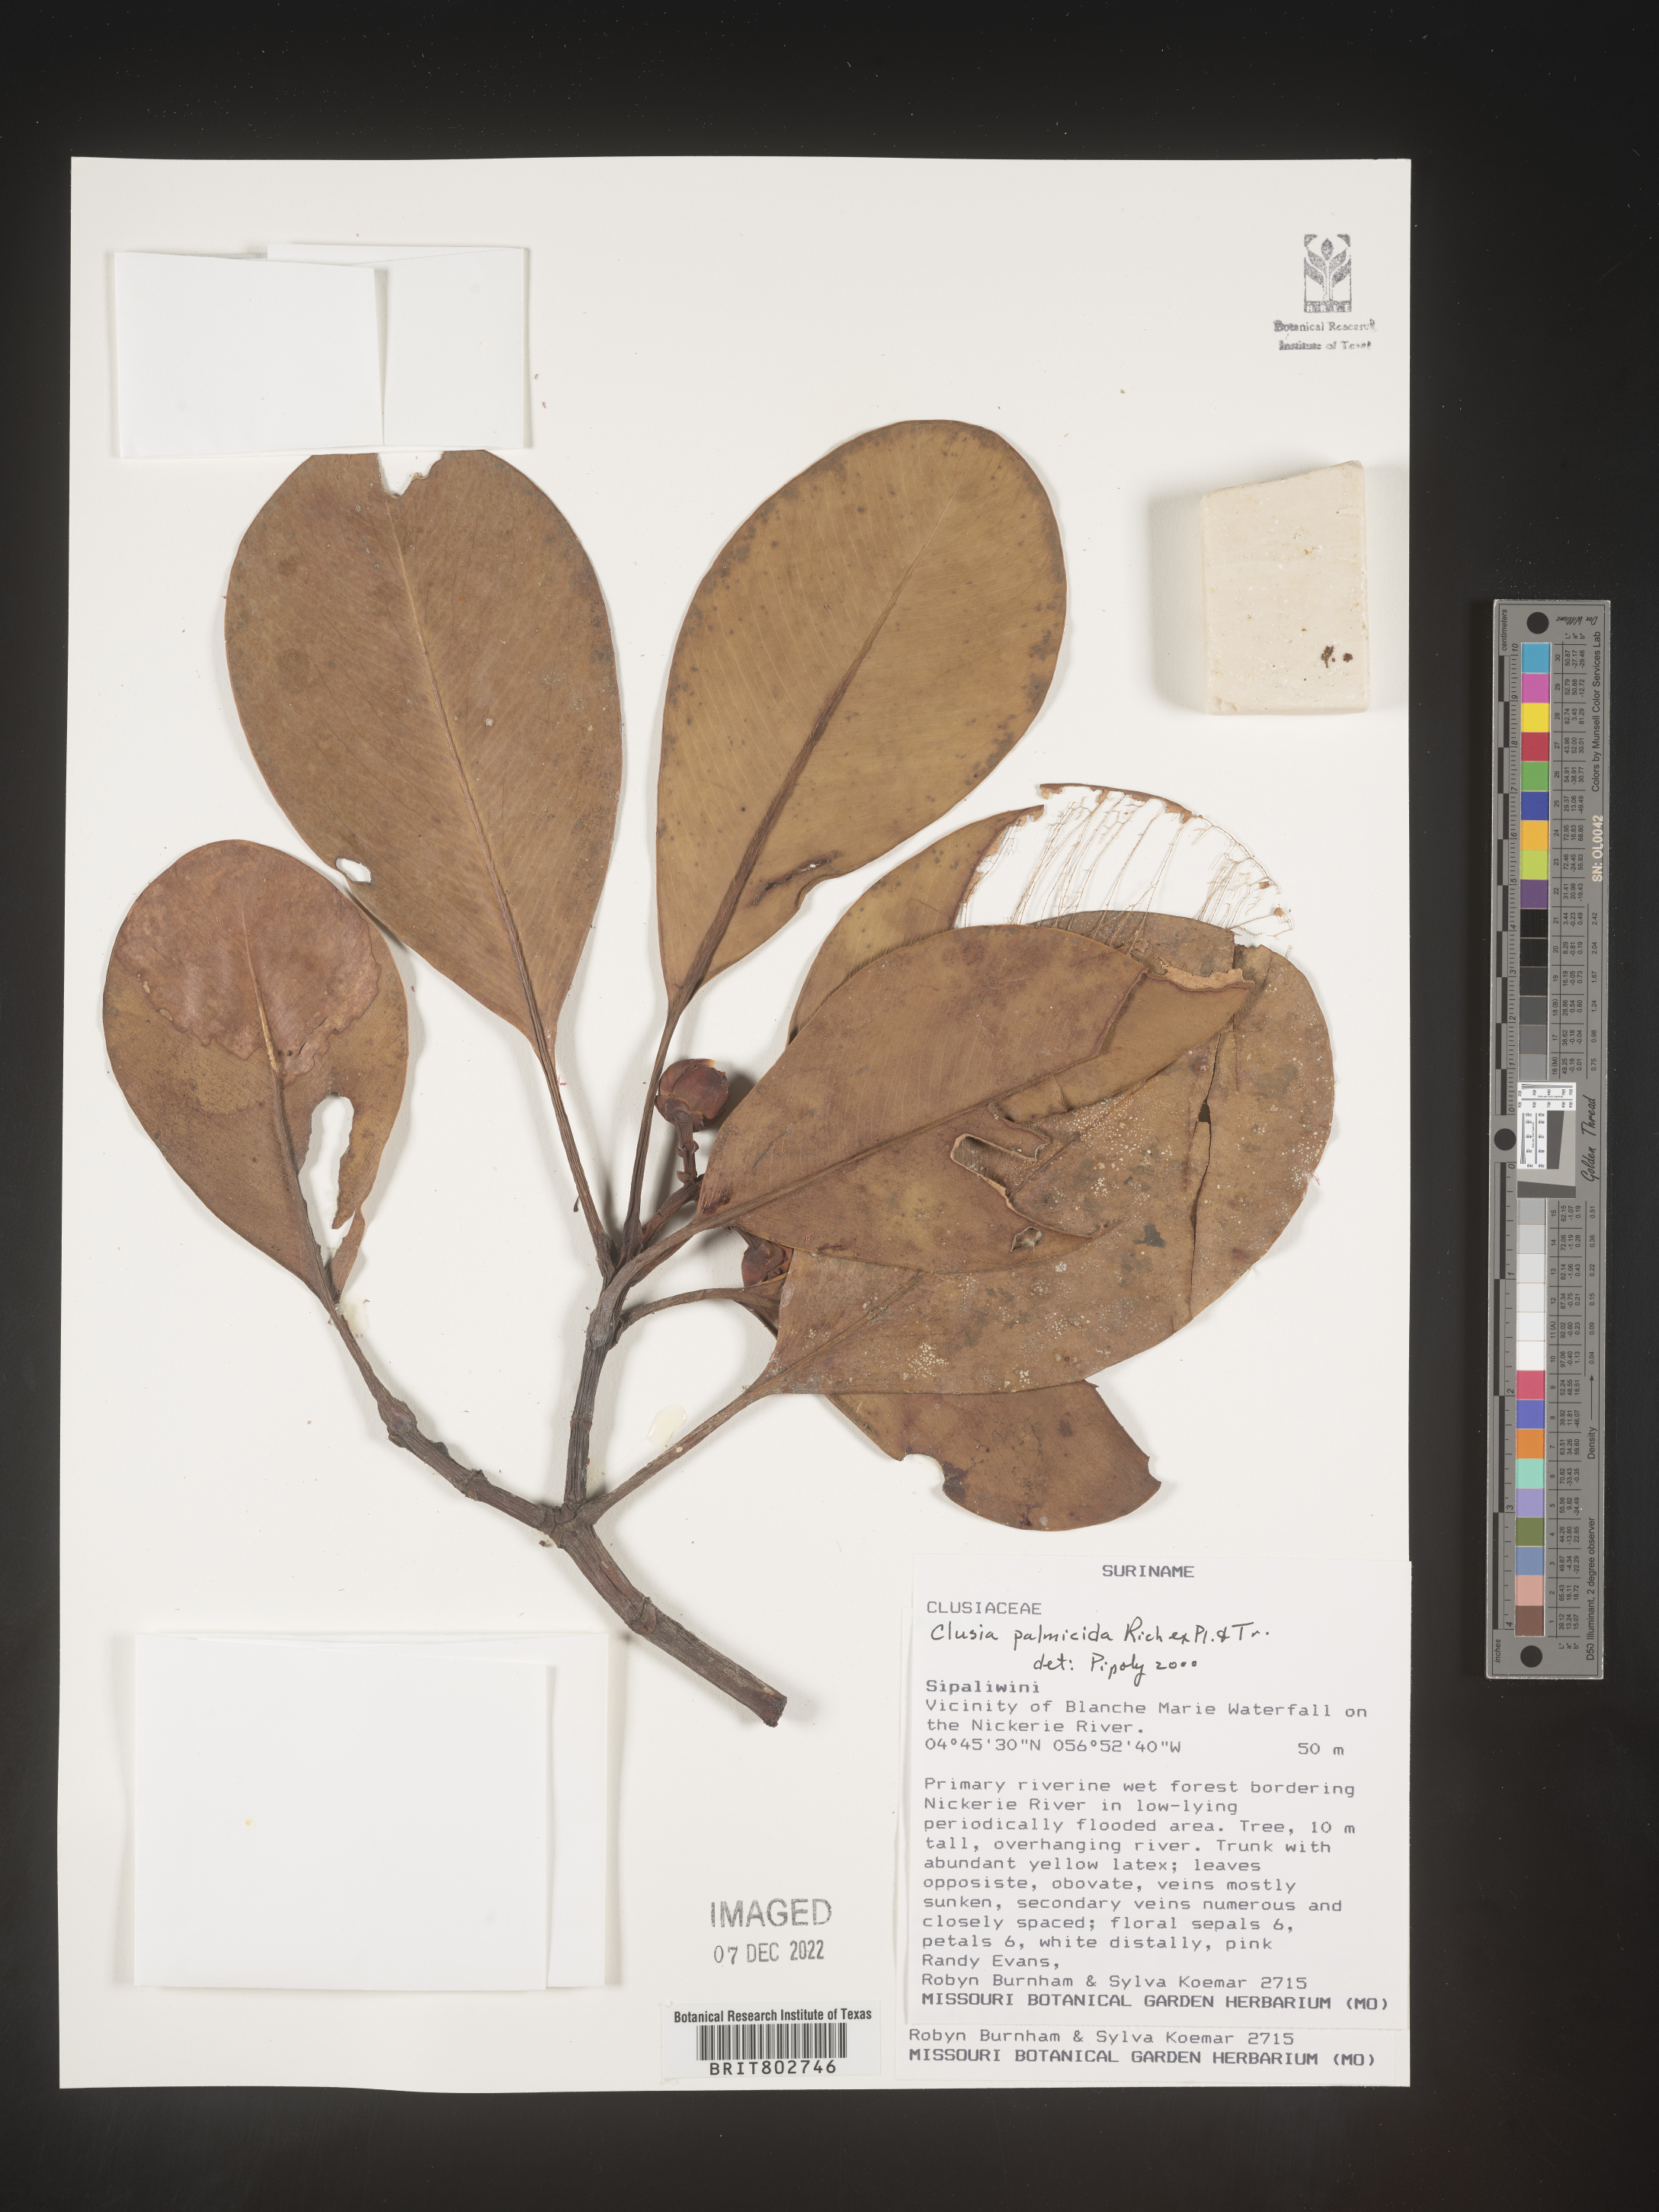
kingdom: Plantae
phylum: Tracheophyta
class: Magnoliopsida
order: Malpighiales
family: Clusiaceae
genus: Clusia
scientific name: Clusia palmicida
